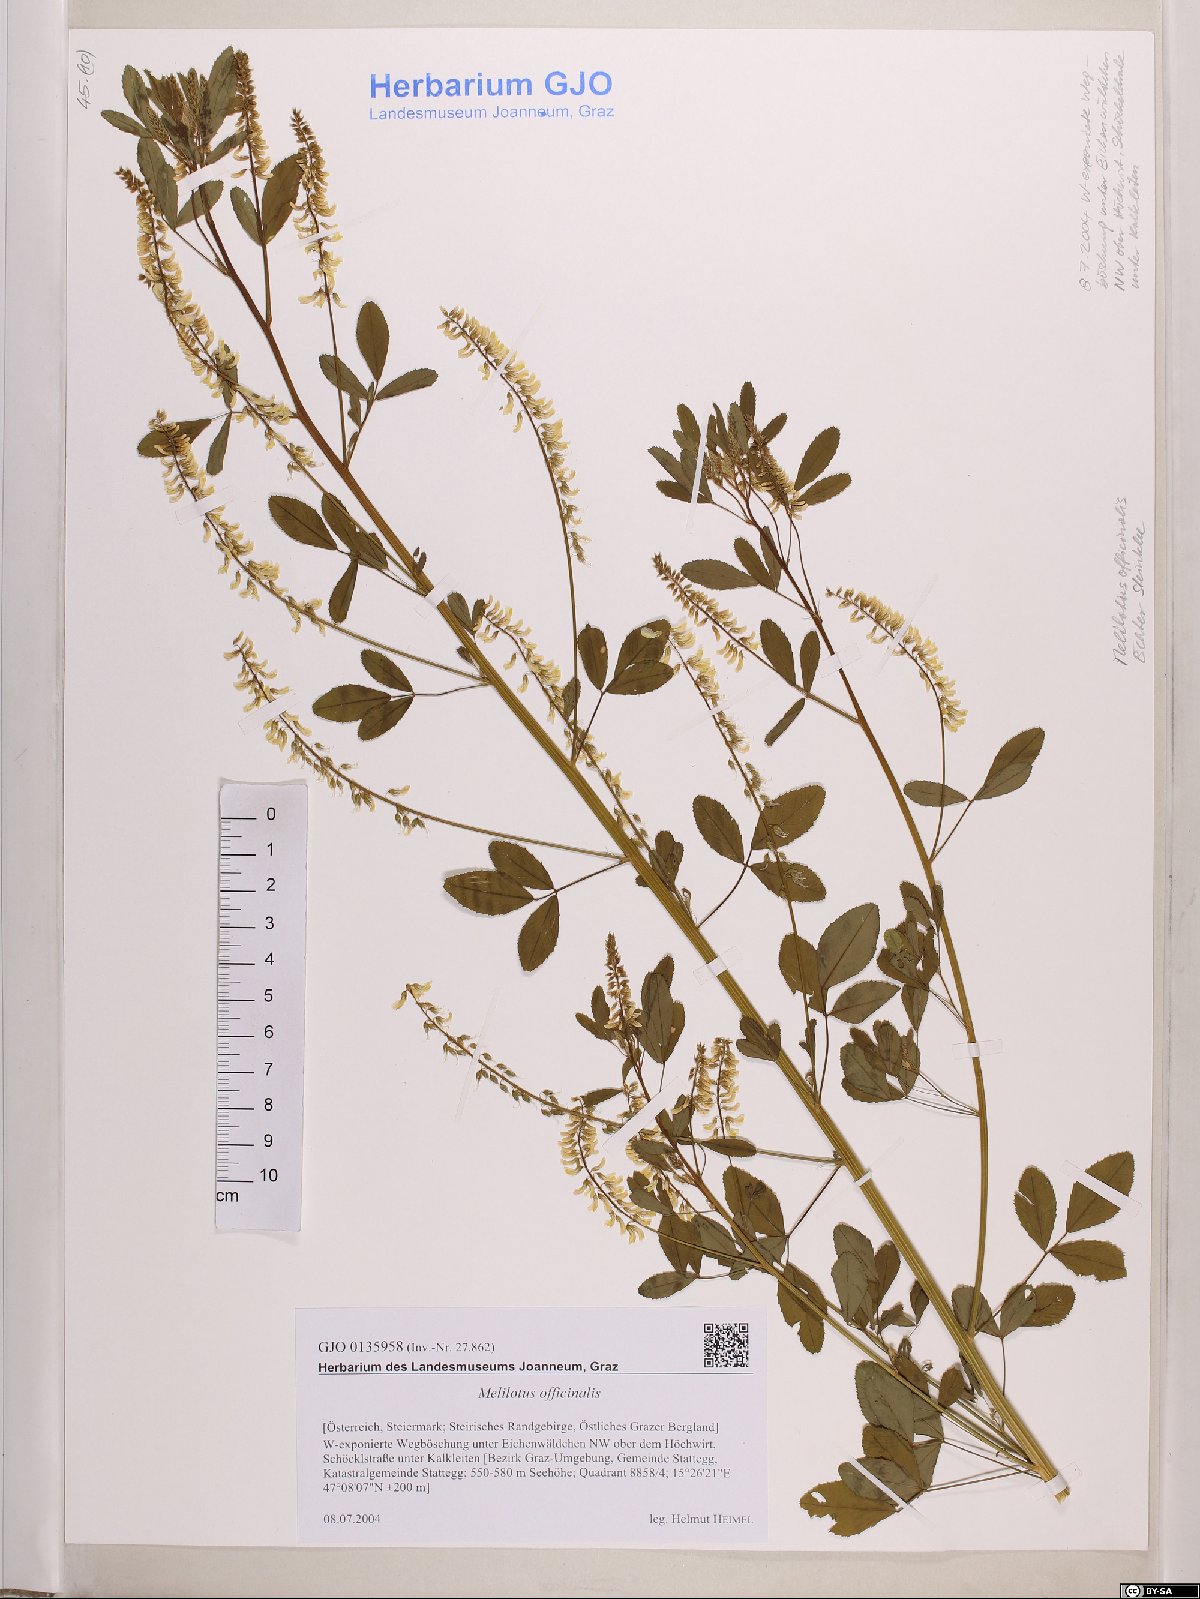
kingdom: Plantae
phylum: Tracheophyta
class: Magnoliopsida
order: Fabales
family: Fabaceae
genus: Melilotus
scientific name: Melilotus officinalis
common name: Sweetclover
